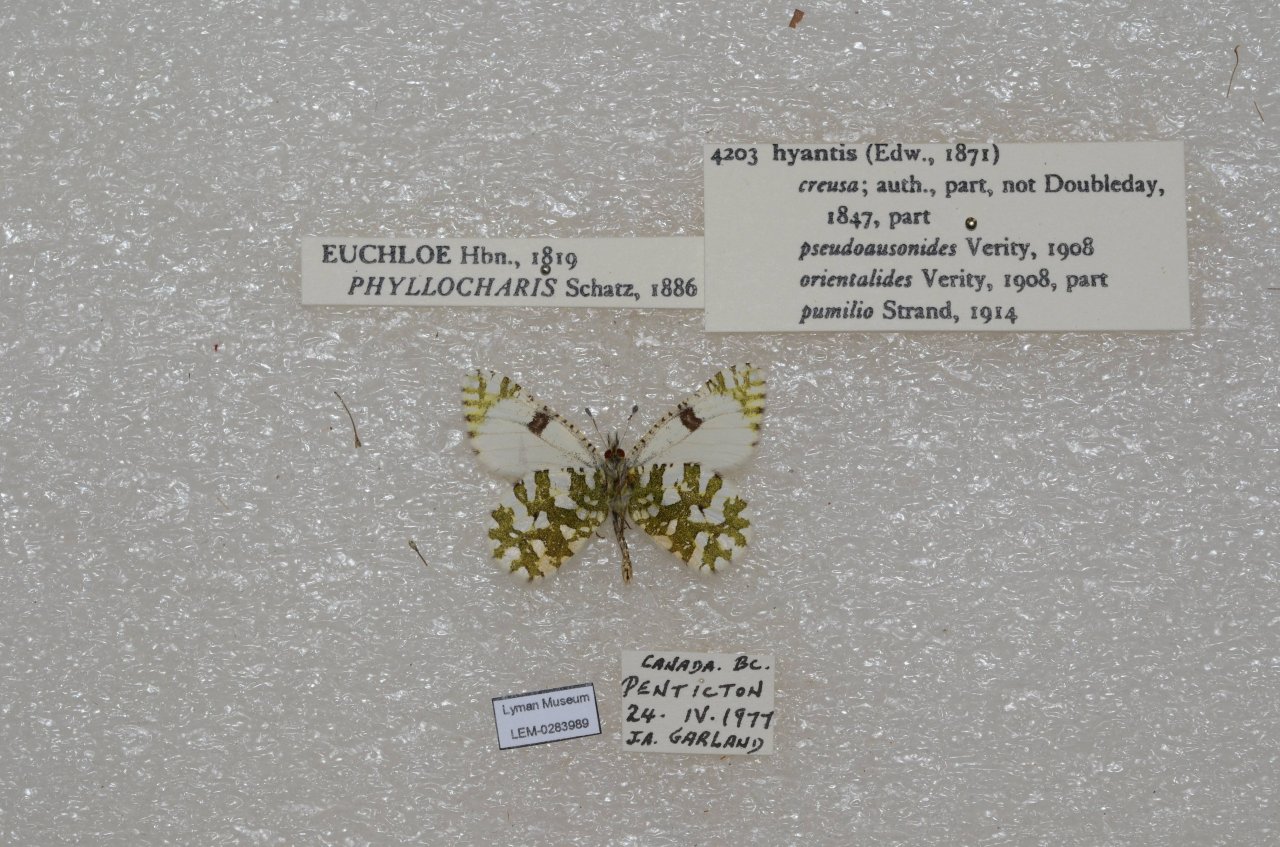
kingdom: Animalia
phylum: Arthropoda
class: Insecta
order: Lepidoptera
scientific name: Lepidoptera
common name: Butterflies
